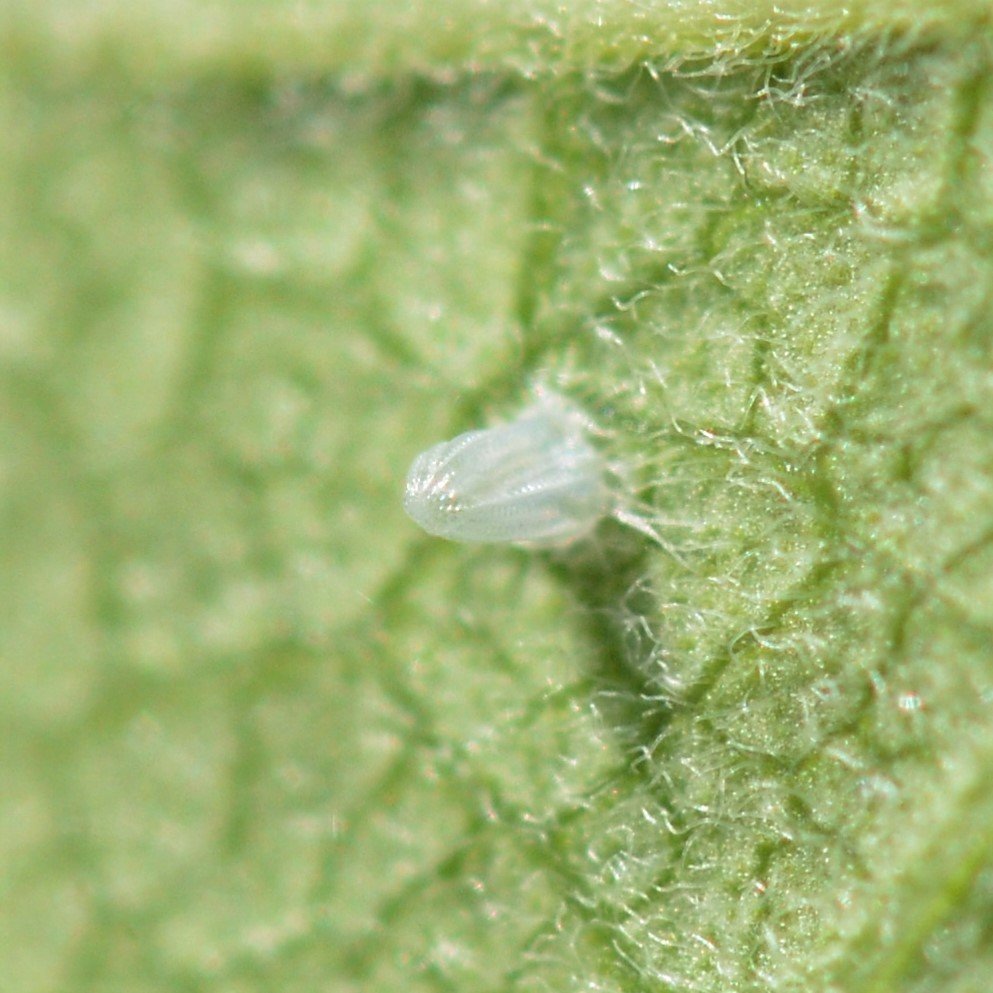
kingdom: Animalia
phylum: Arthropoda
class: Insecta
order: Lepidoptera
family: Nymphalidae
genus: Danaus
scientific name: Danaus plexippus
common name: Monarch
